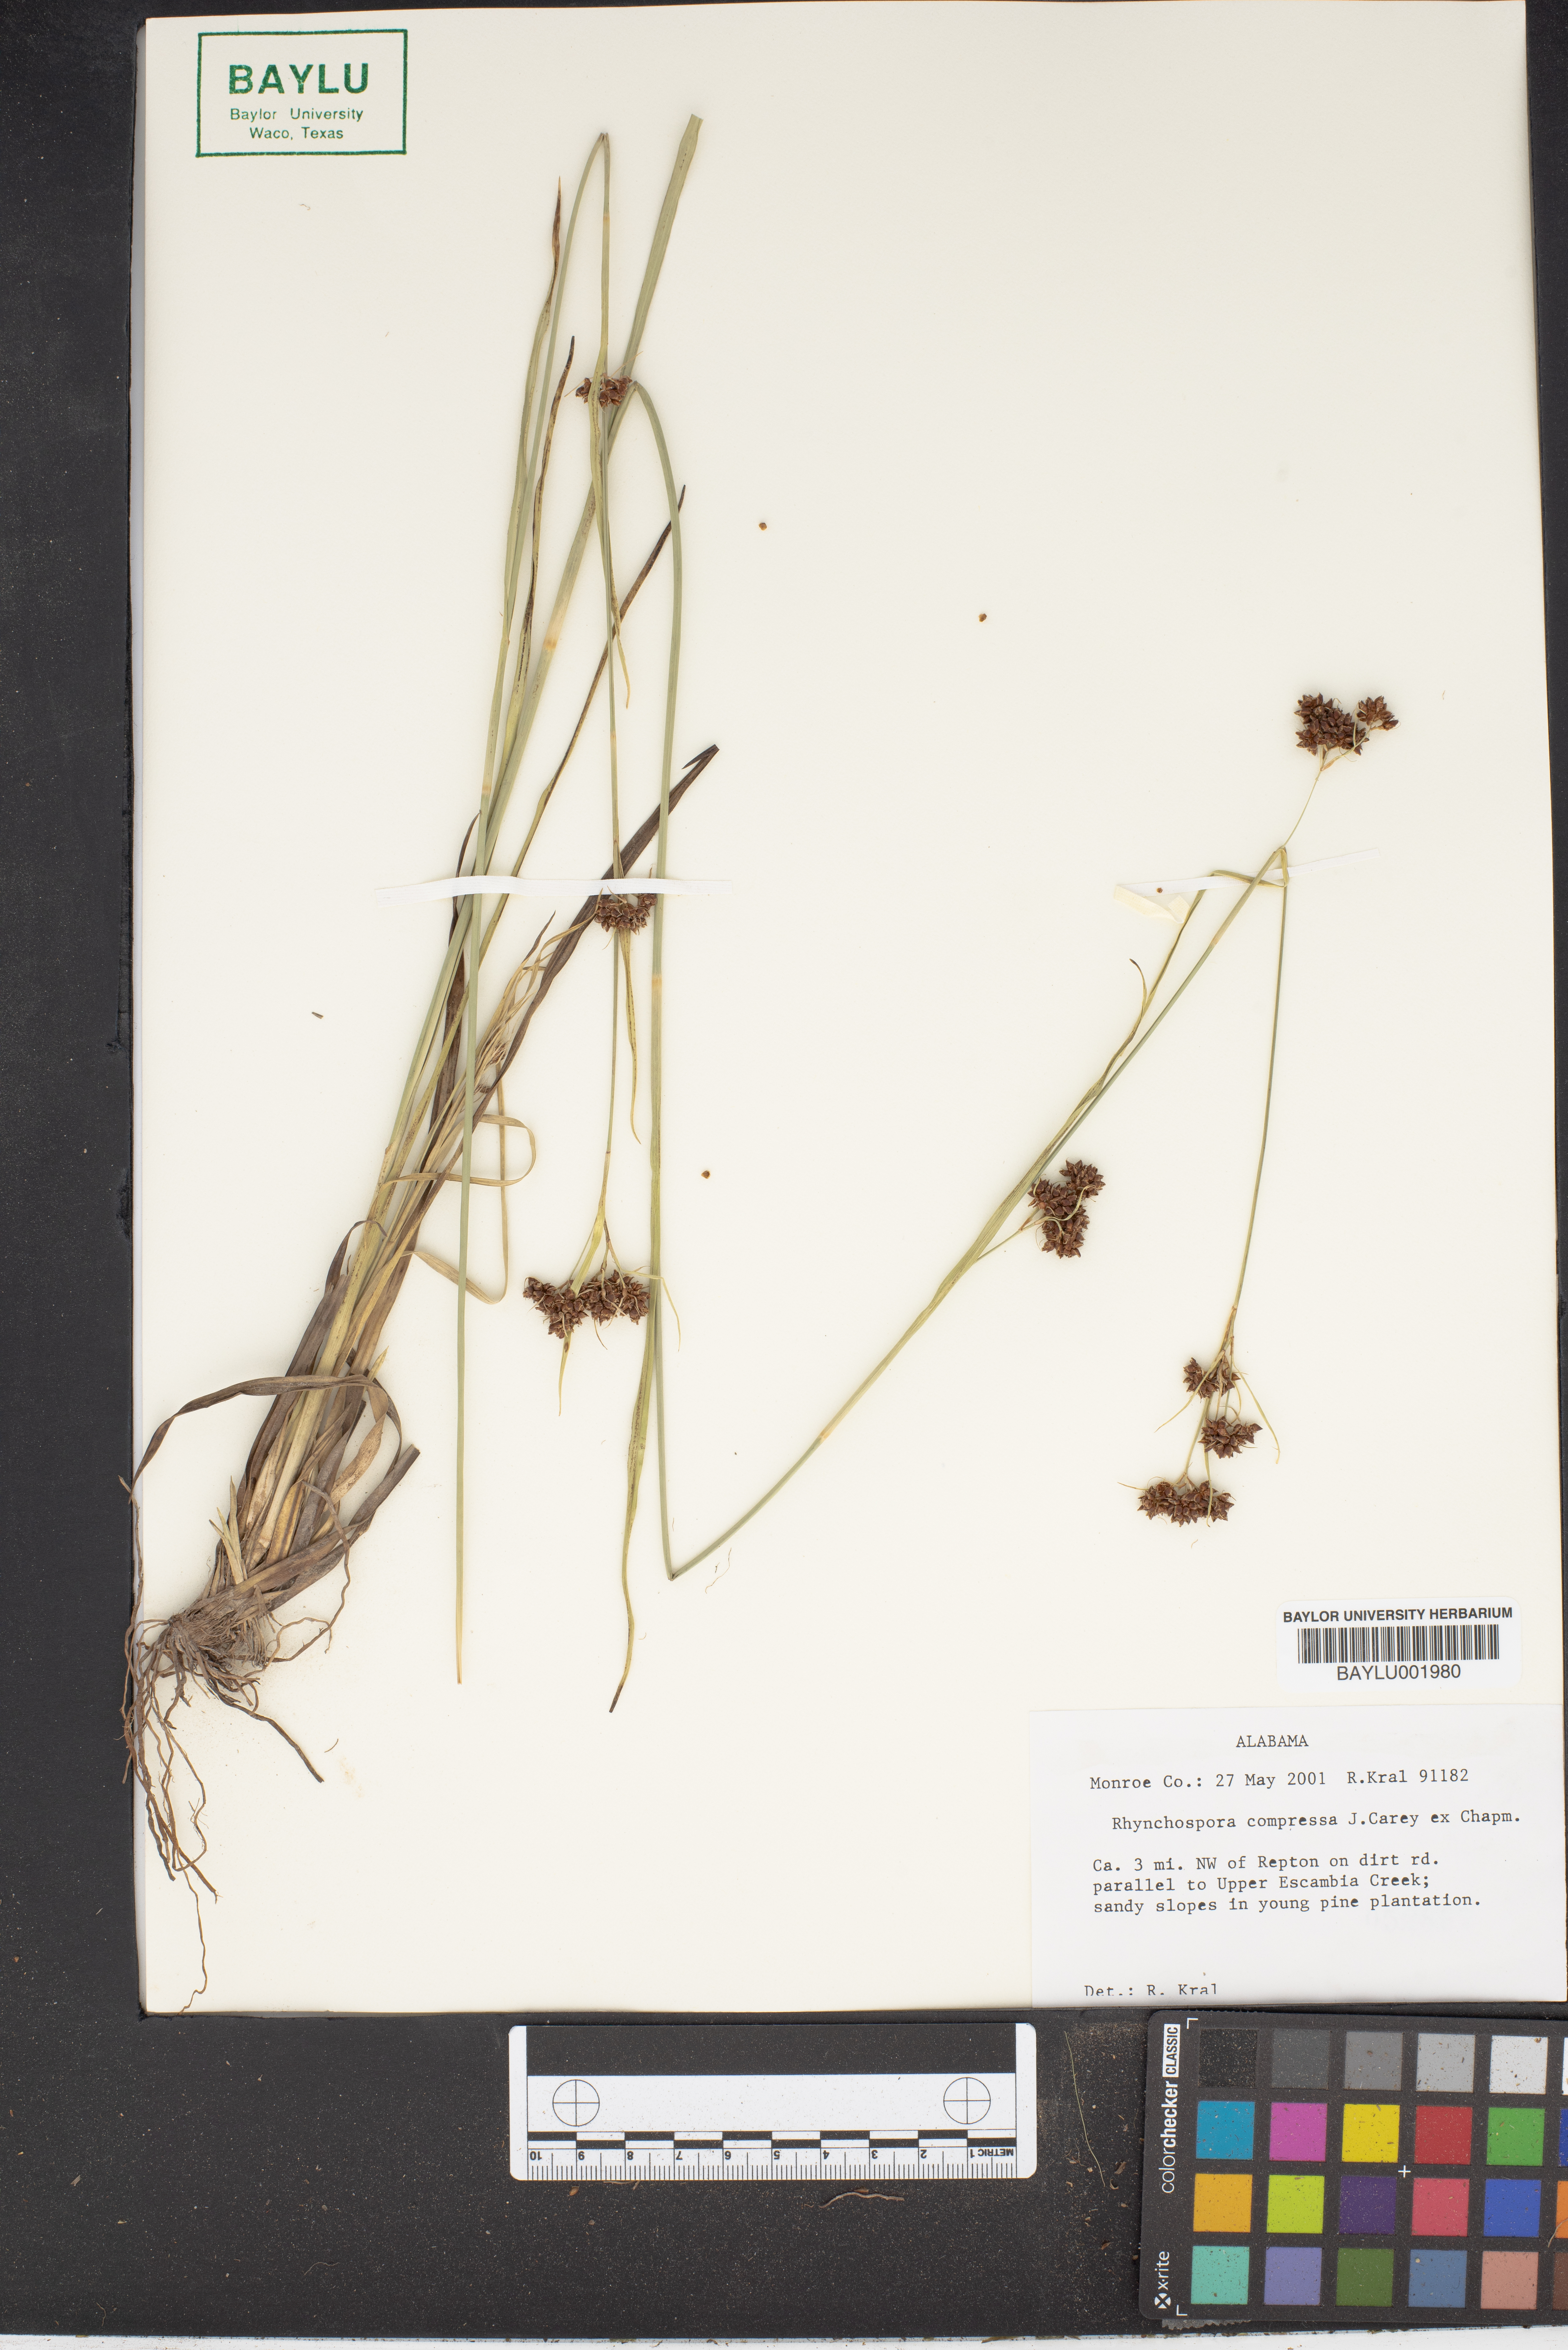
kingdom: Plantae
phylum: Tracheophyta
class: Liliopsida
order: Poales
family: Cyperaceae
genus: Rhynchospora
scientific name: Rhynchospora compressa
